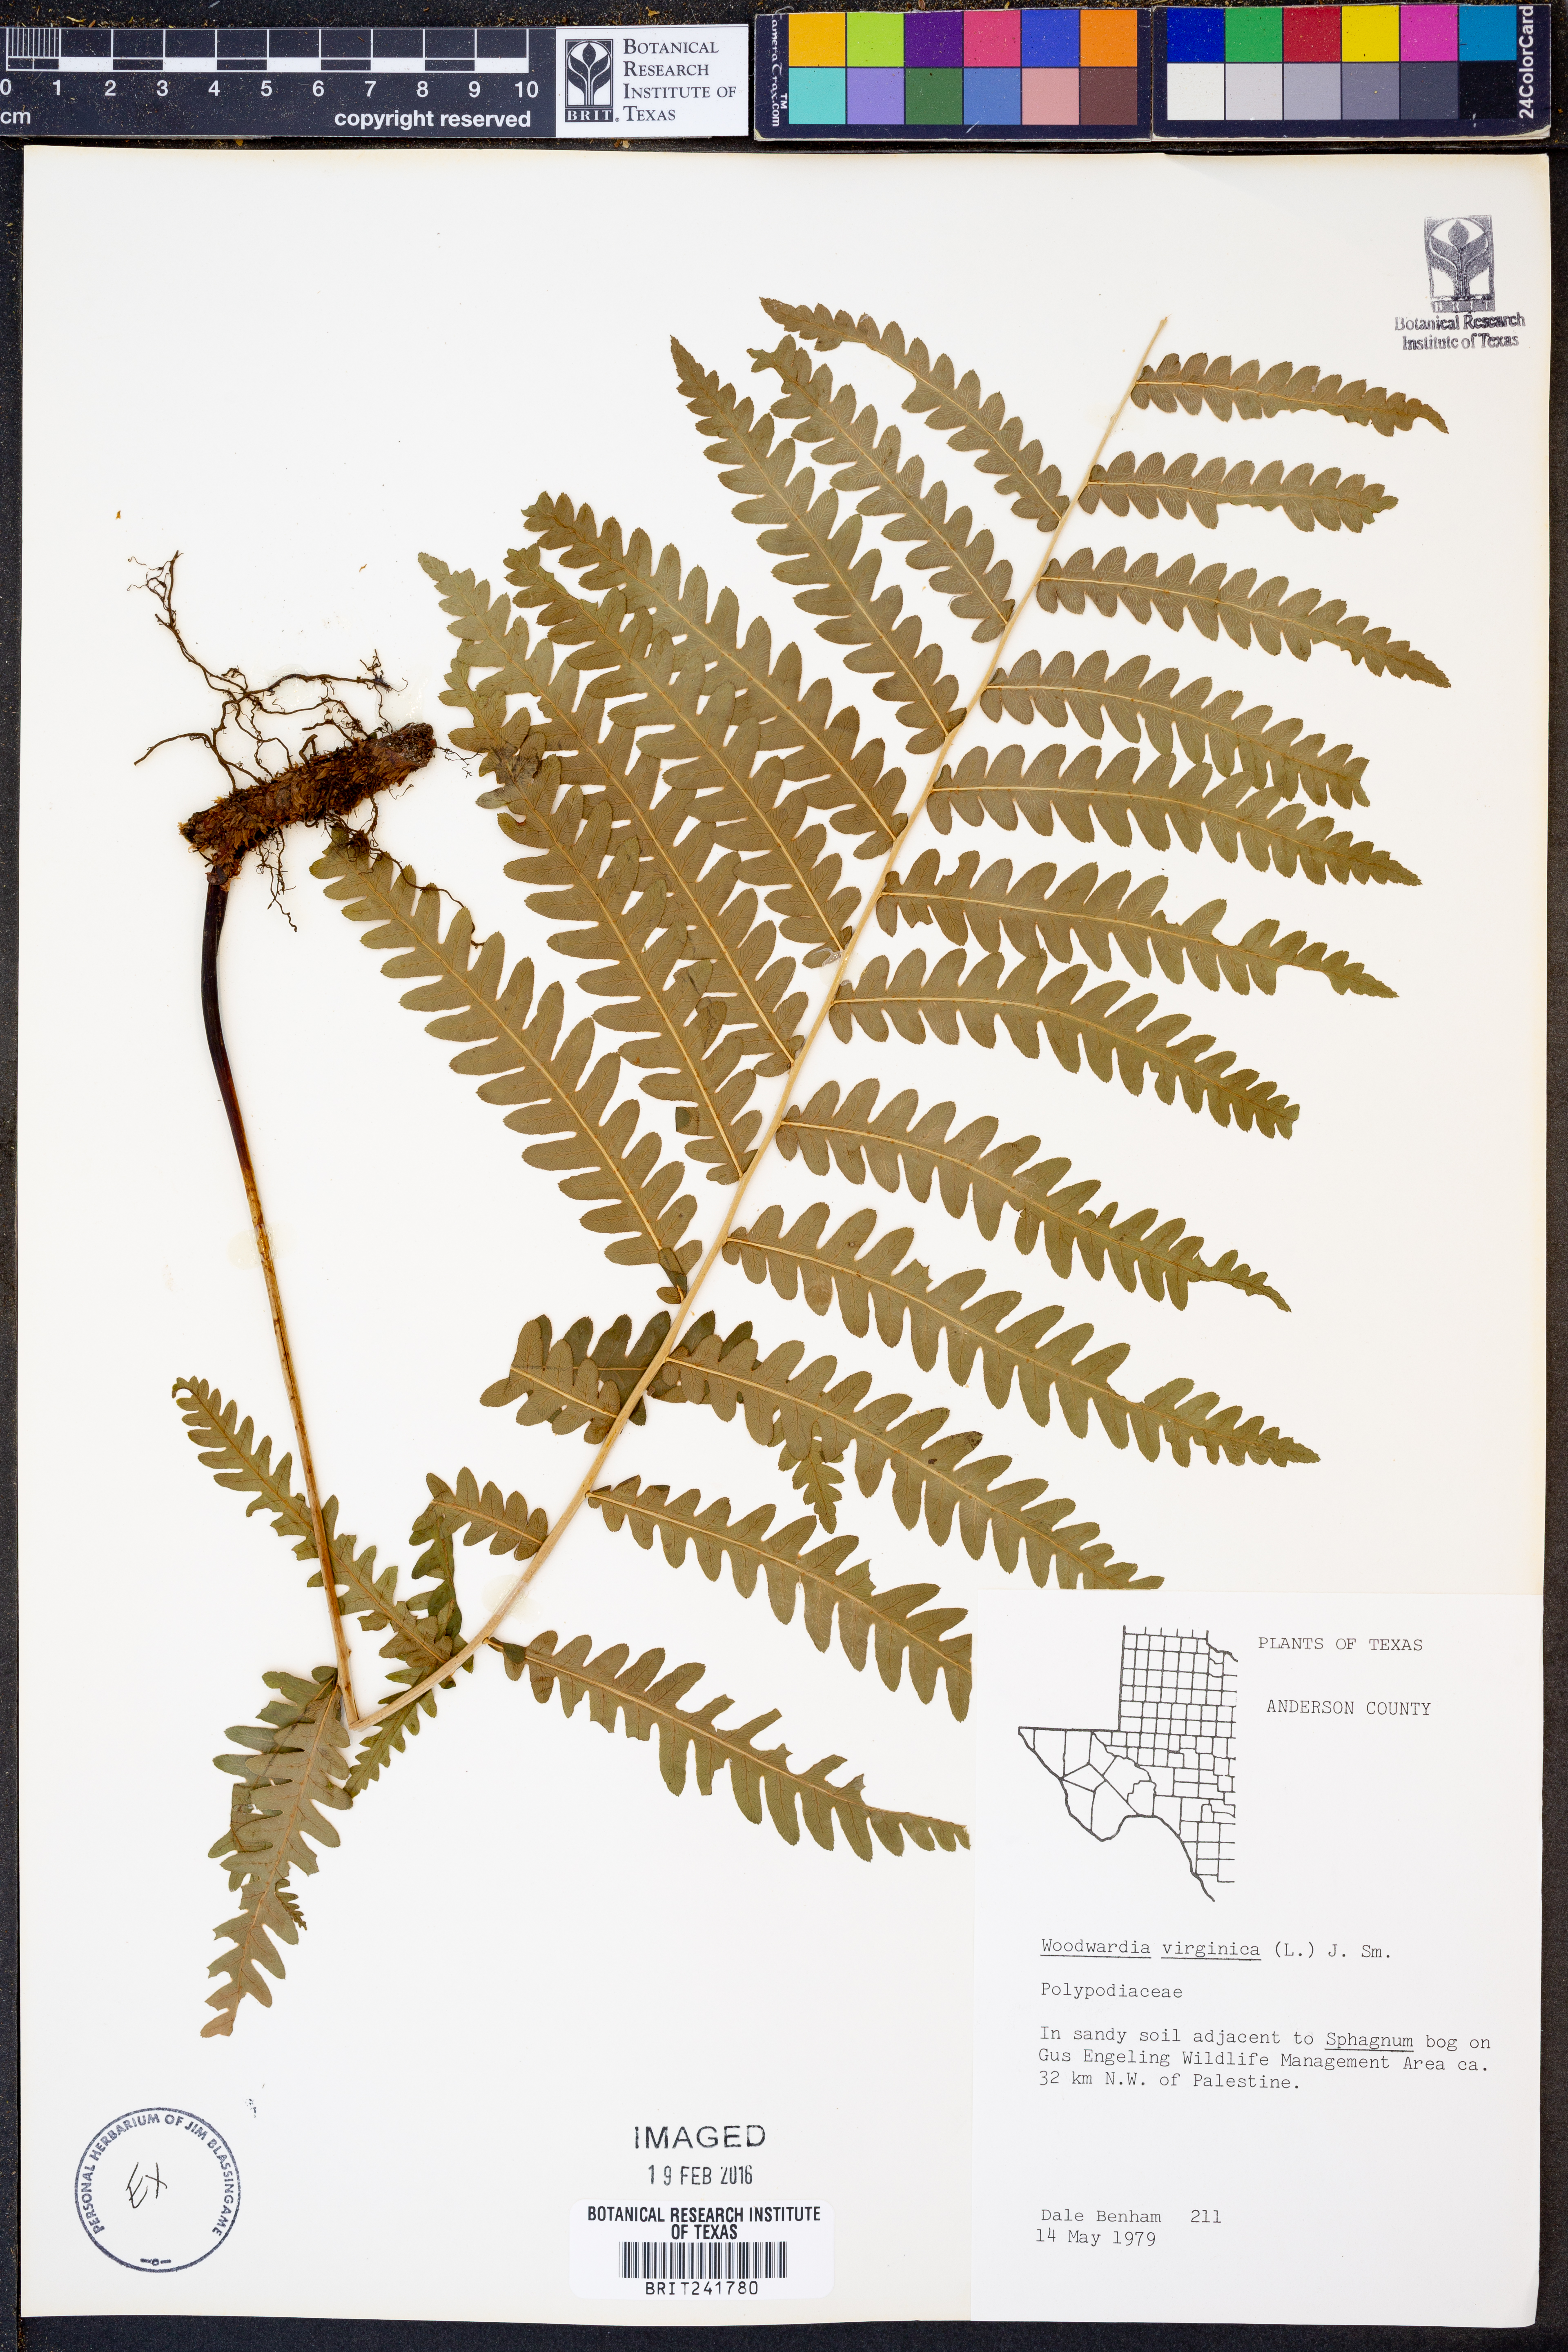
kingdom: Plantae
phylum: Tracheophyta
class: Polypodiopsida
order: Polypodiales
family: Blechnaceae
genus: Anchistea
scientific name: Anchistea virginica
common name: Virginia chain fern
